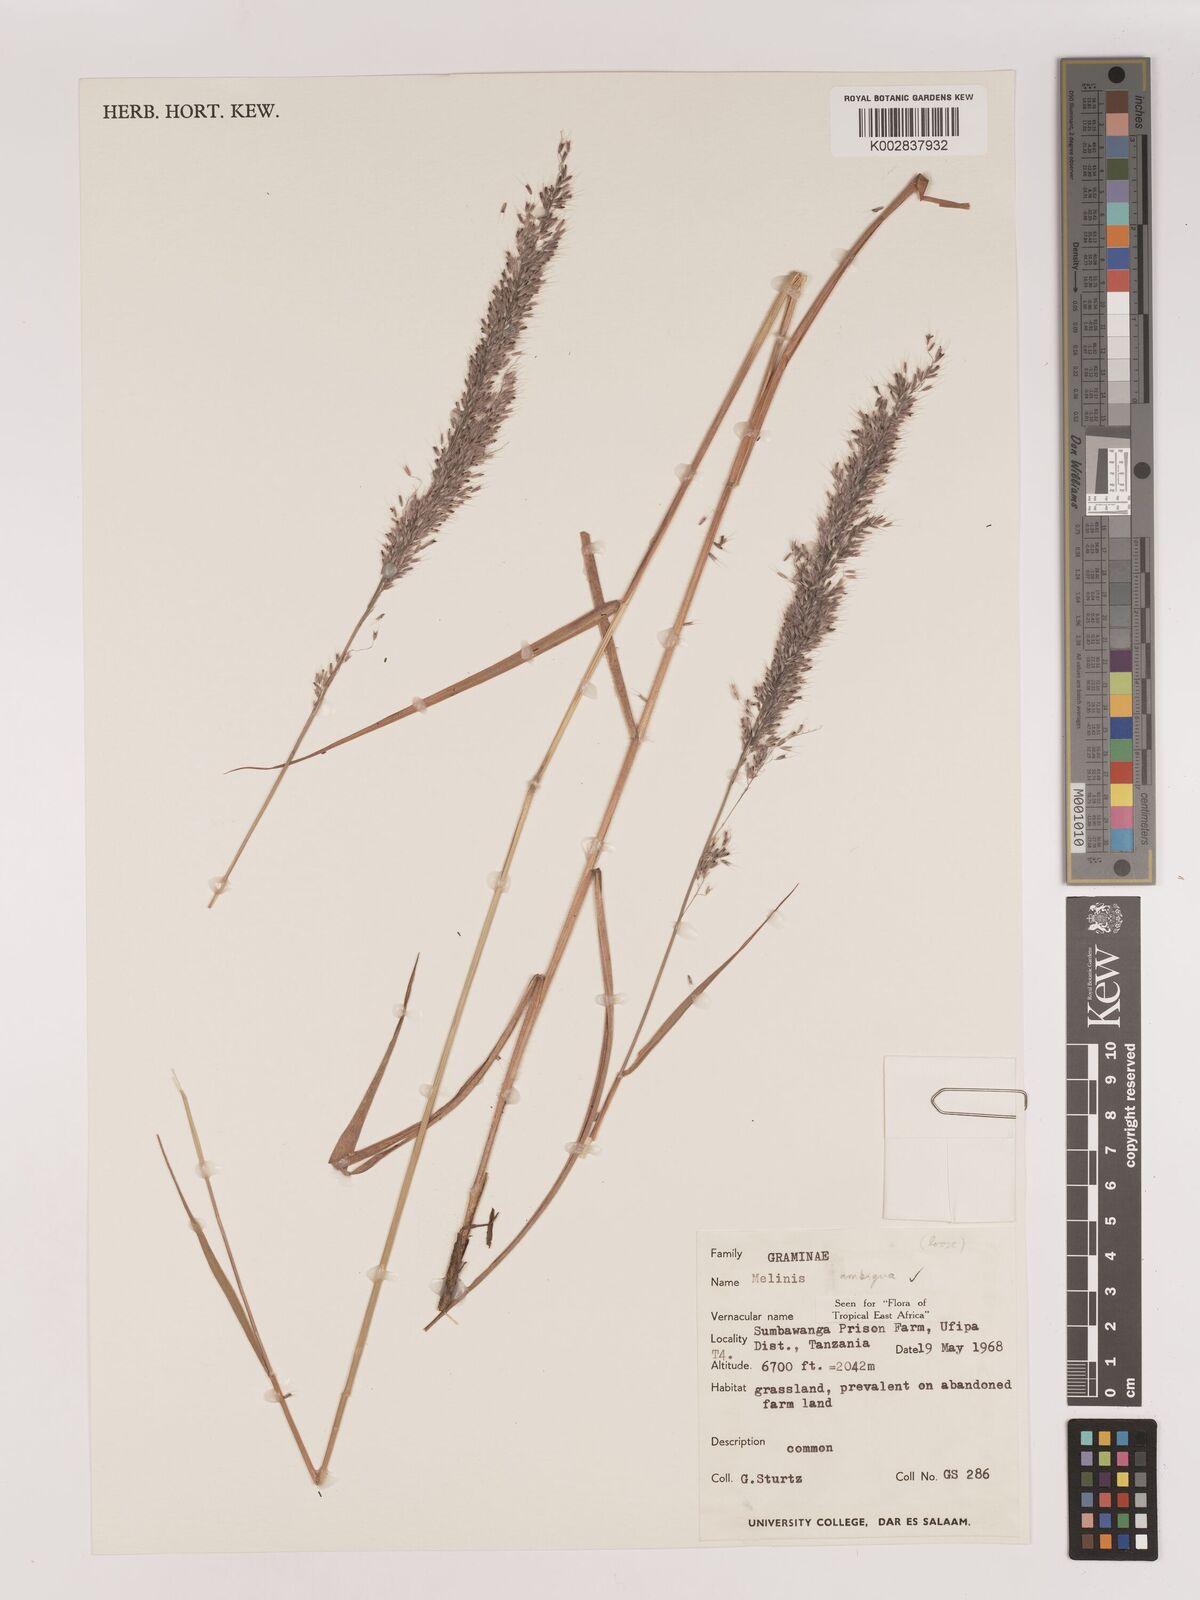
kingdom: Plantae
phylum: Tracheophyta
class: Liliopsida
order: Poales
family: Poaceae
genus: Melinis
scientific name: Melinis ambigua
